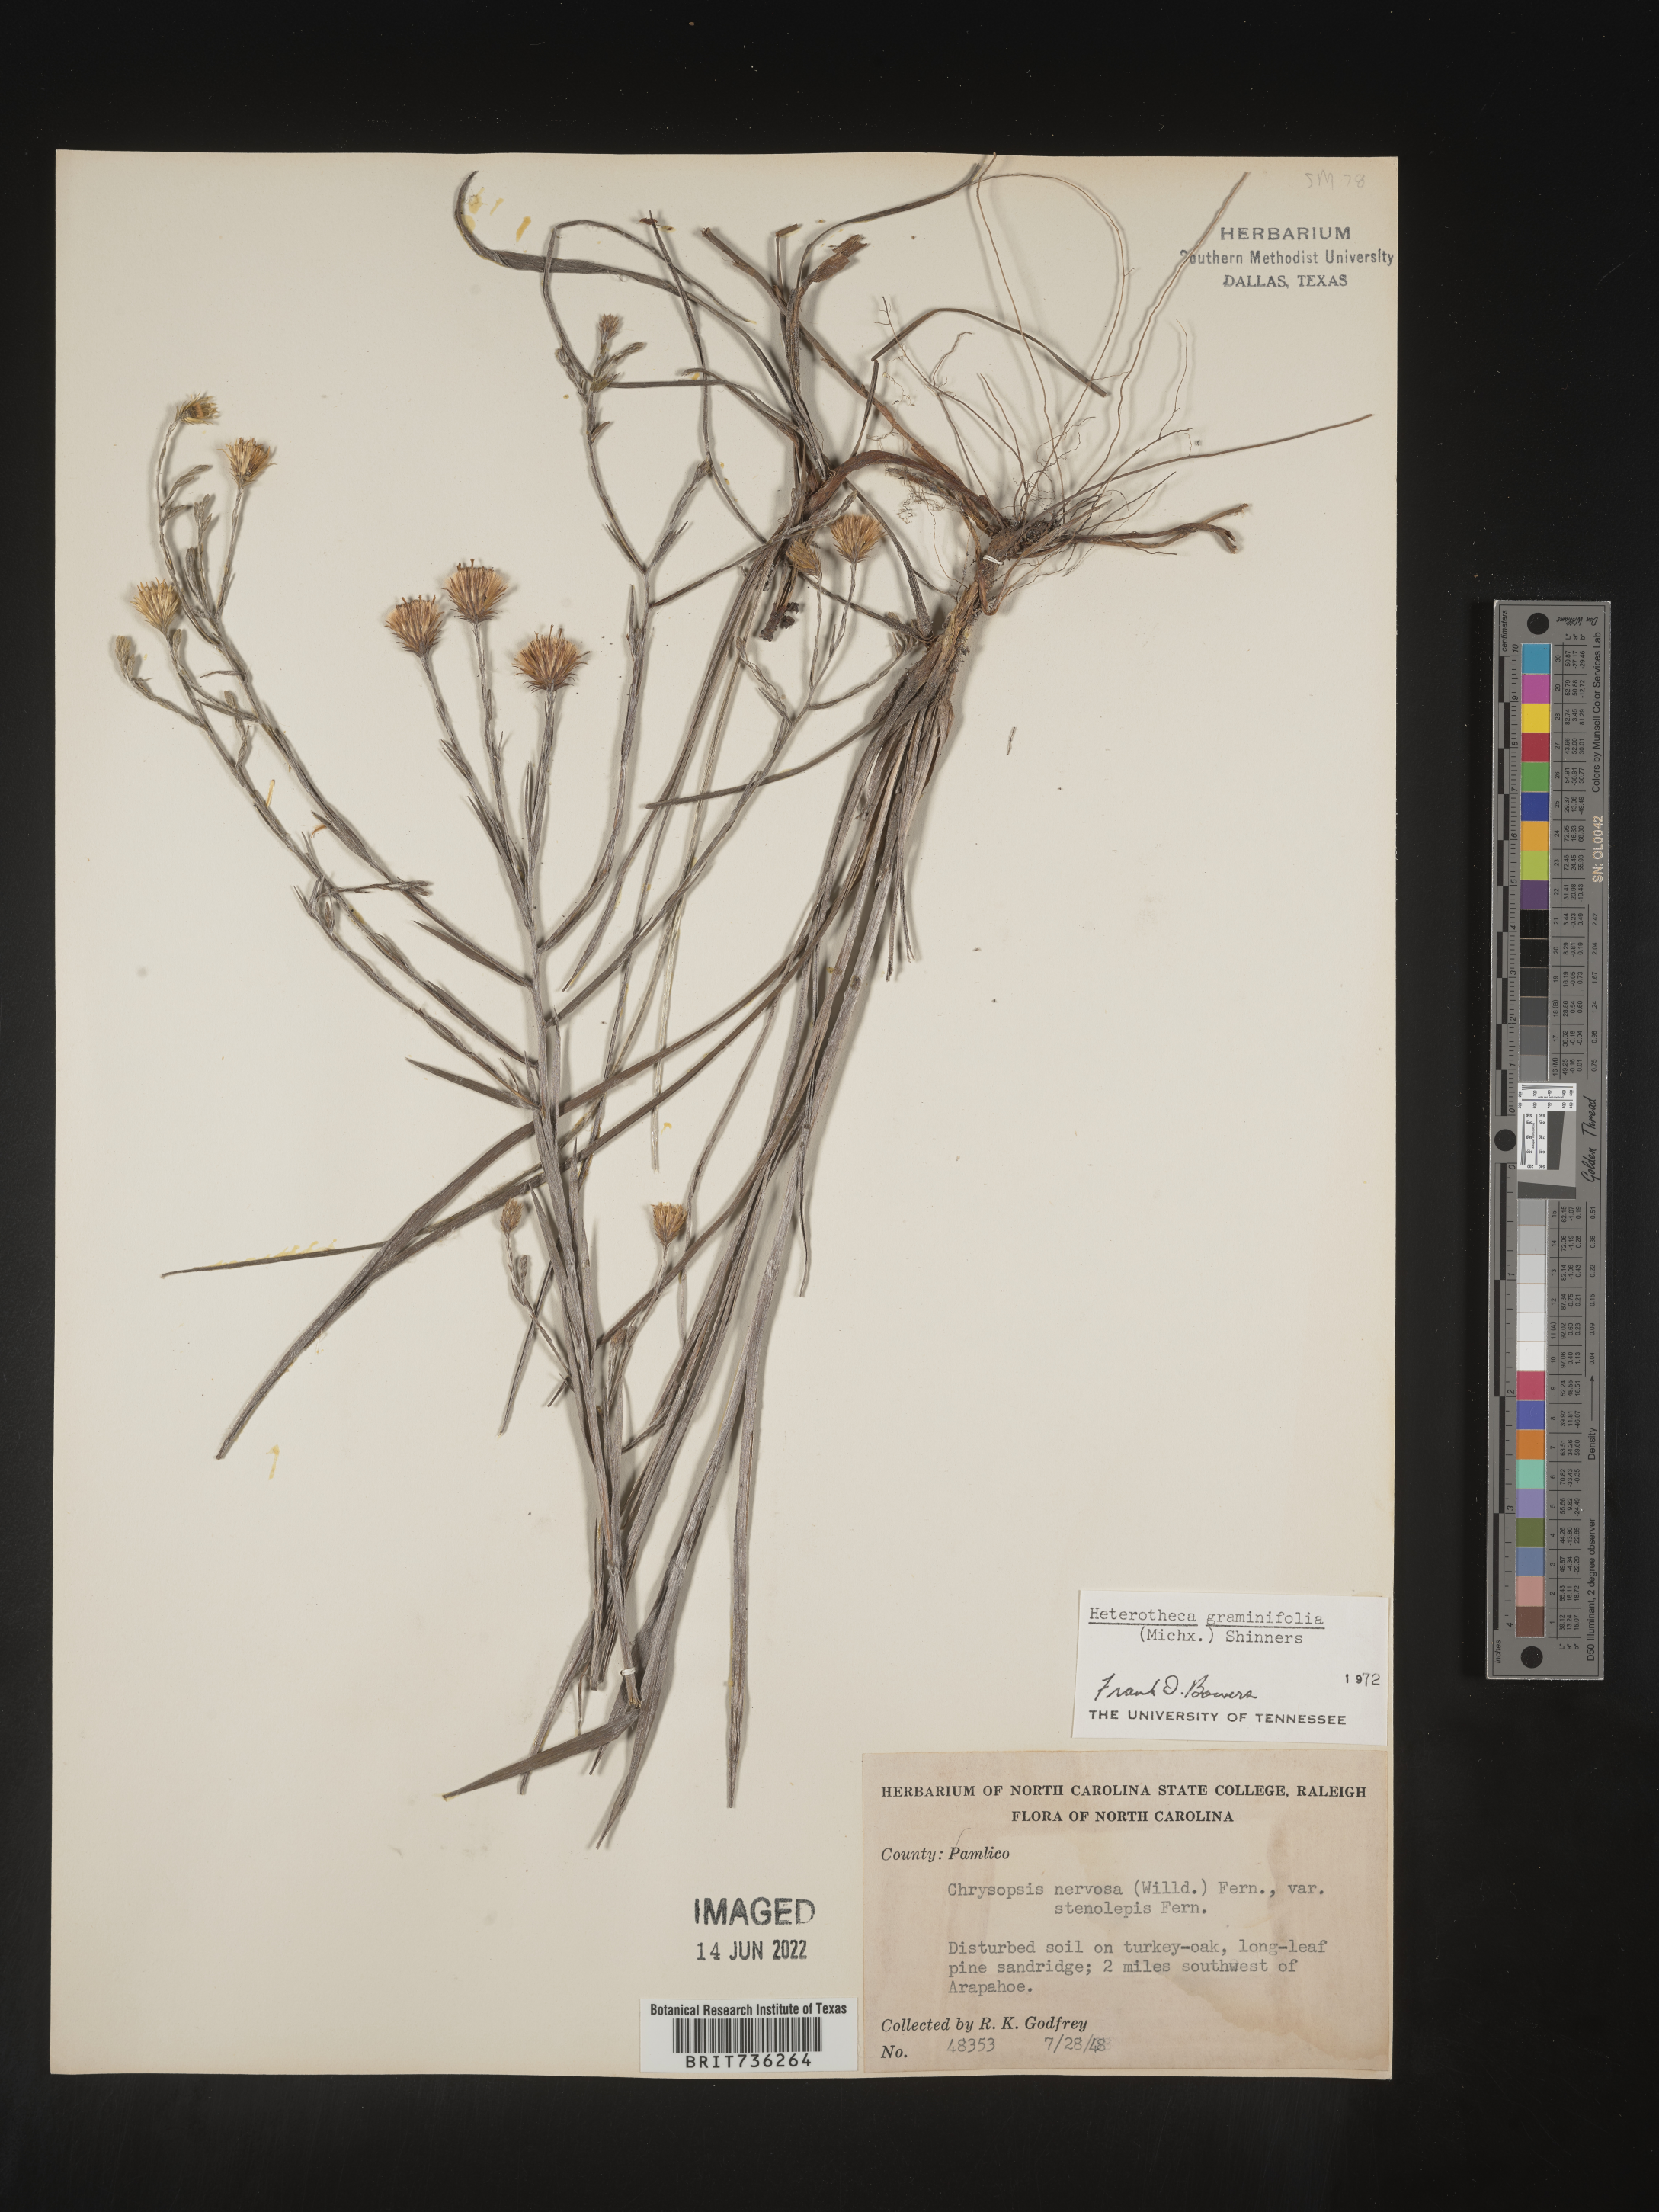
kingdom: Plantae
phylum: Tracheophyta
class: Magnoliopsida
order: Asterales
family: Asteraceae
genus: Pityopsis
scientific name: Pityopsis graminifolia
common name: Grass-leaf golden-aster
